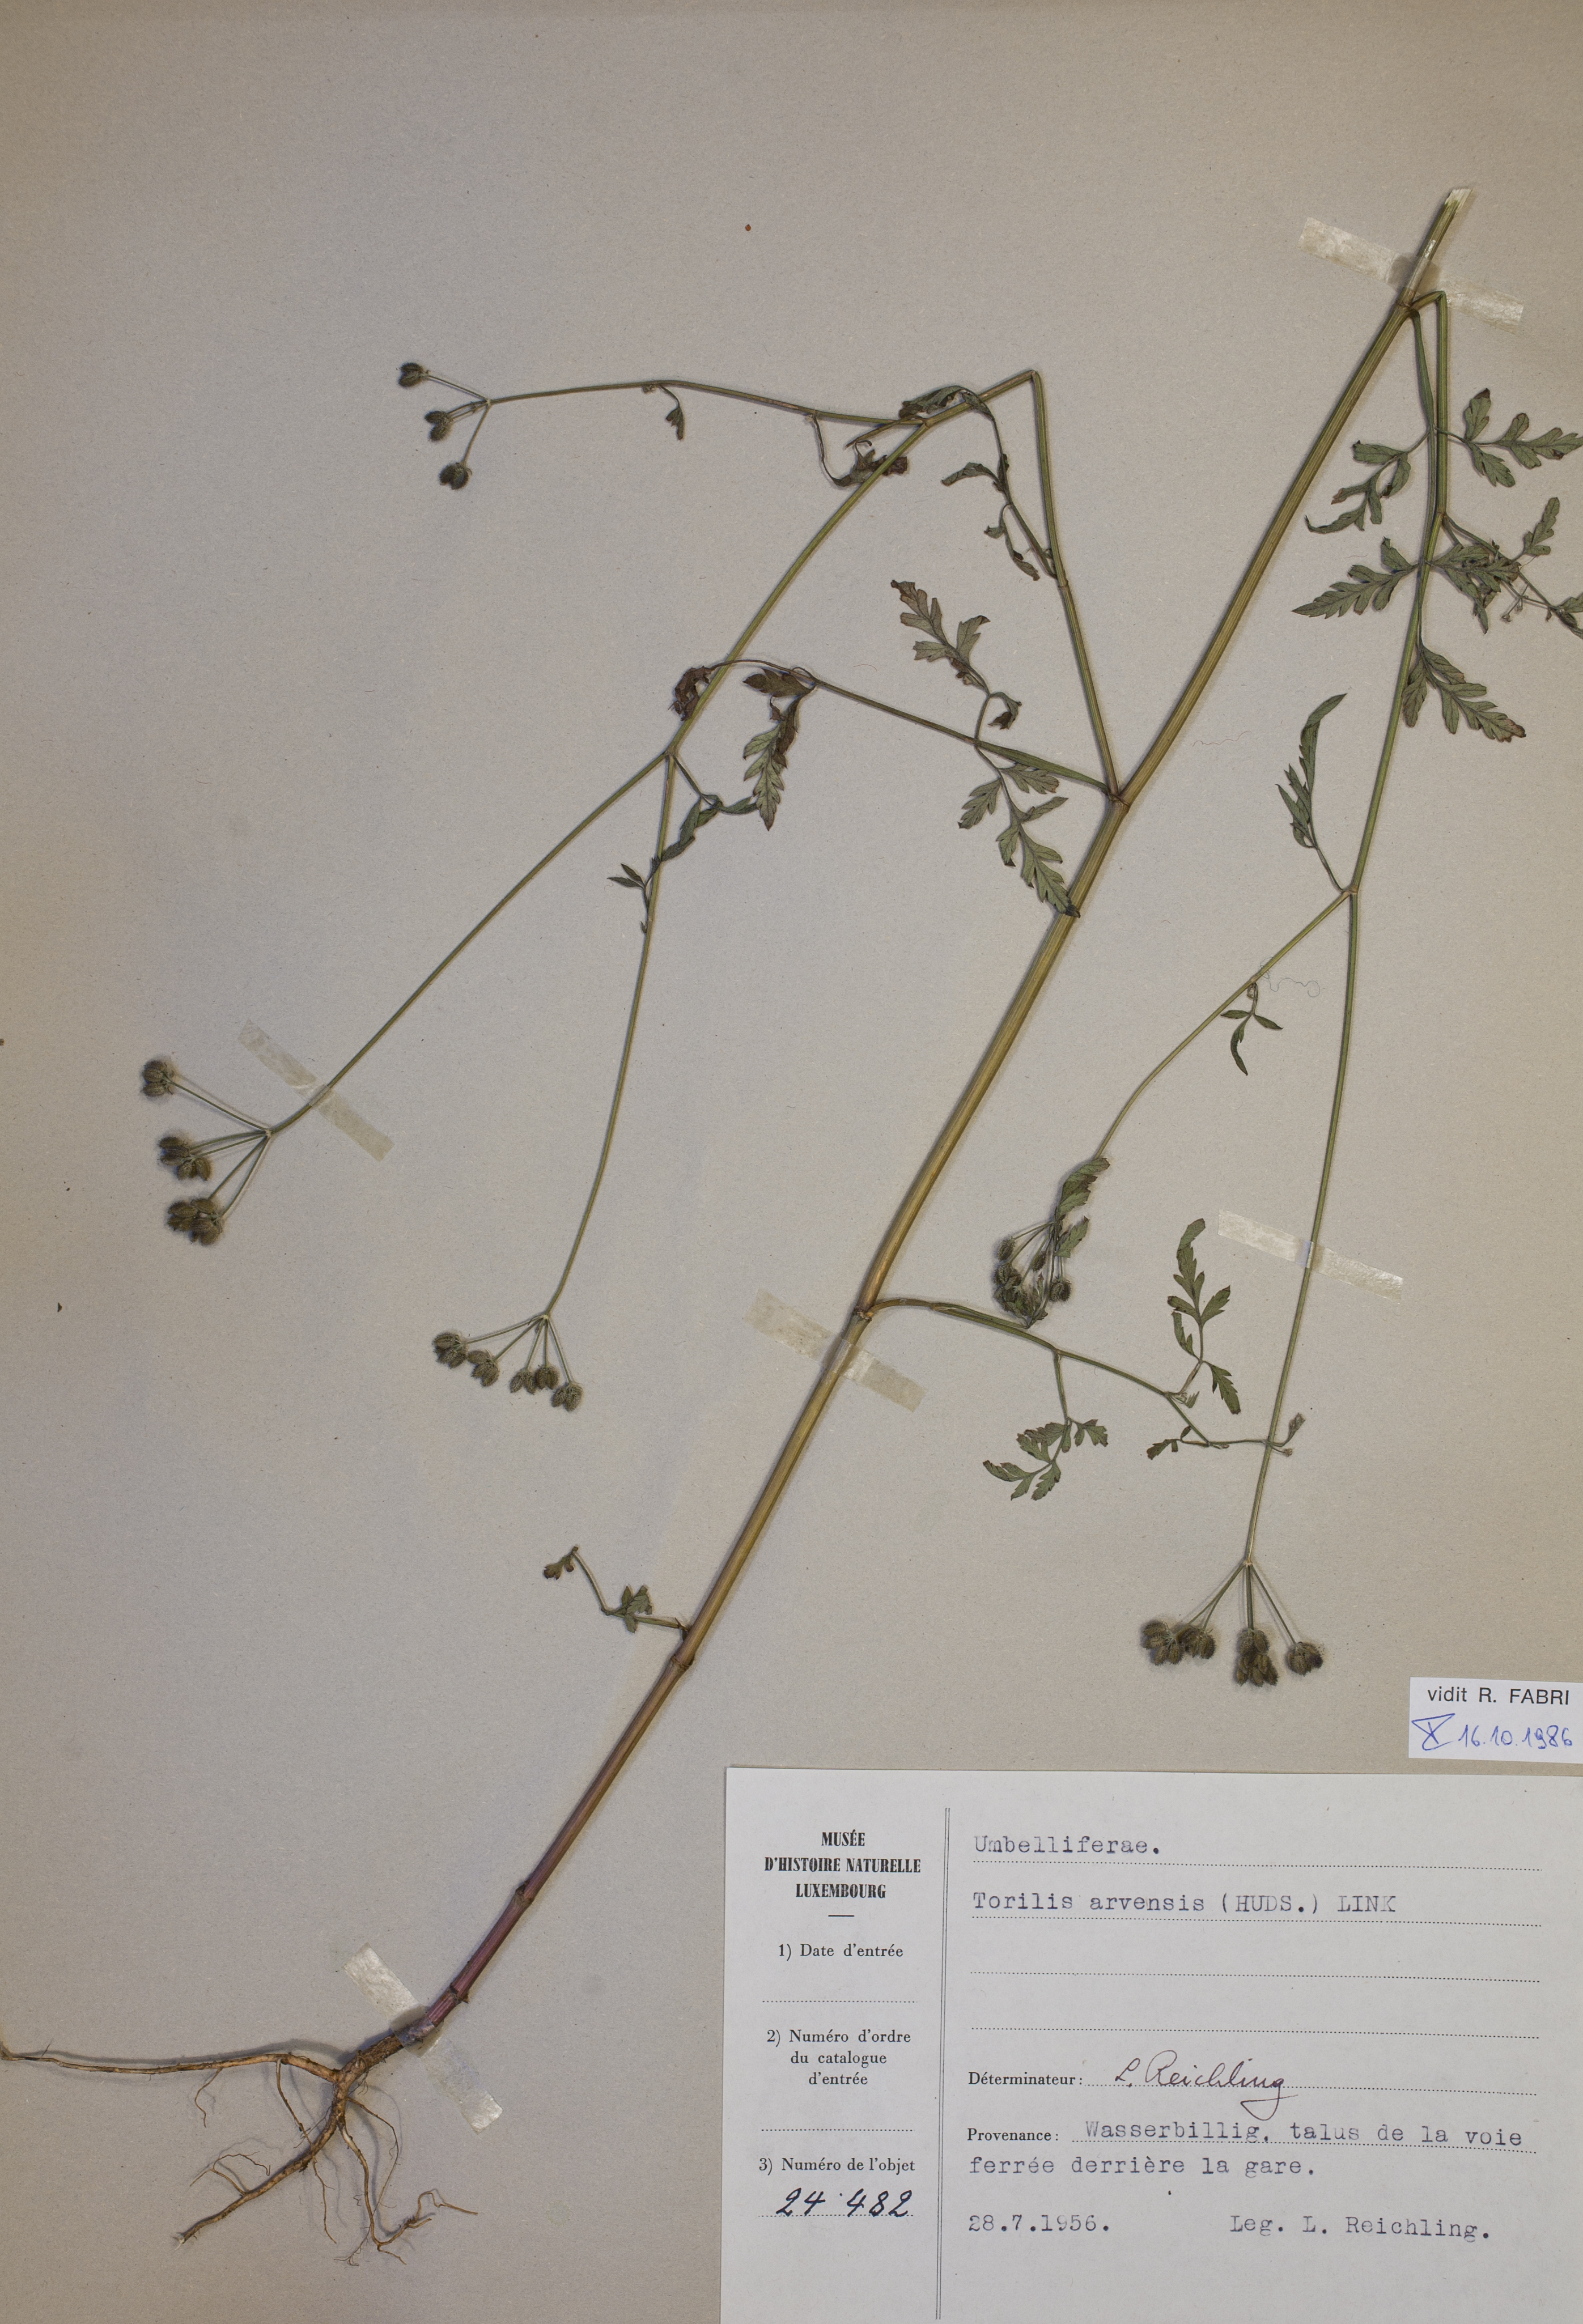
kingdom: Plantae
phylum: Tracheophyta
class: Magnoliopsida
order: Apiales
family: Apiaceae
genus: Torilis
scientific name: Torilis arvensis
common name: Spreading hedge-parsley
